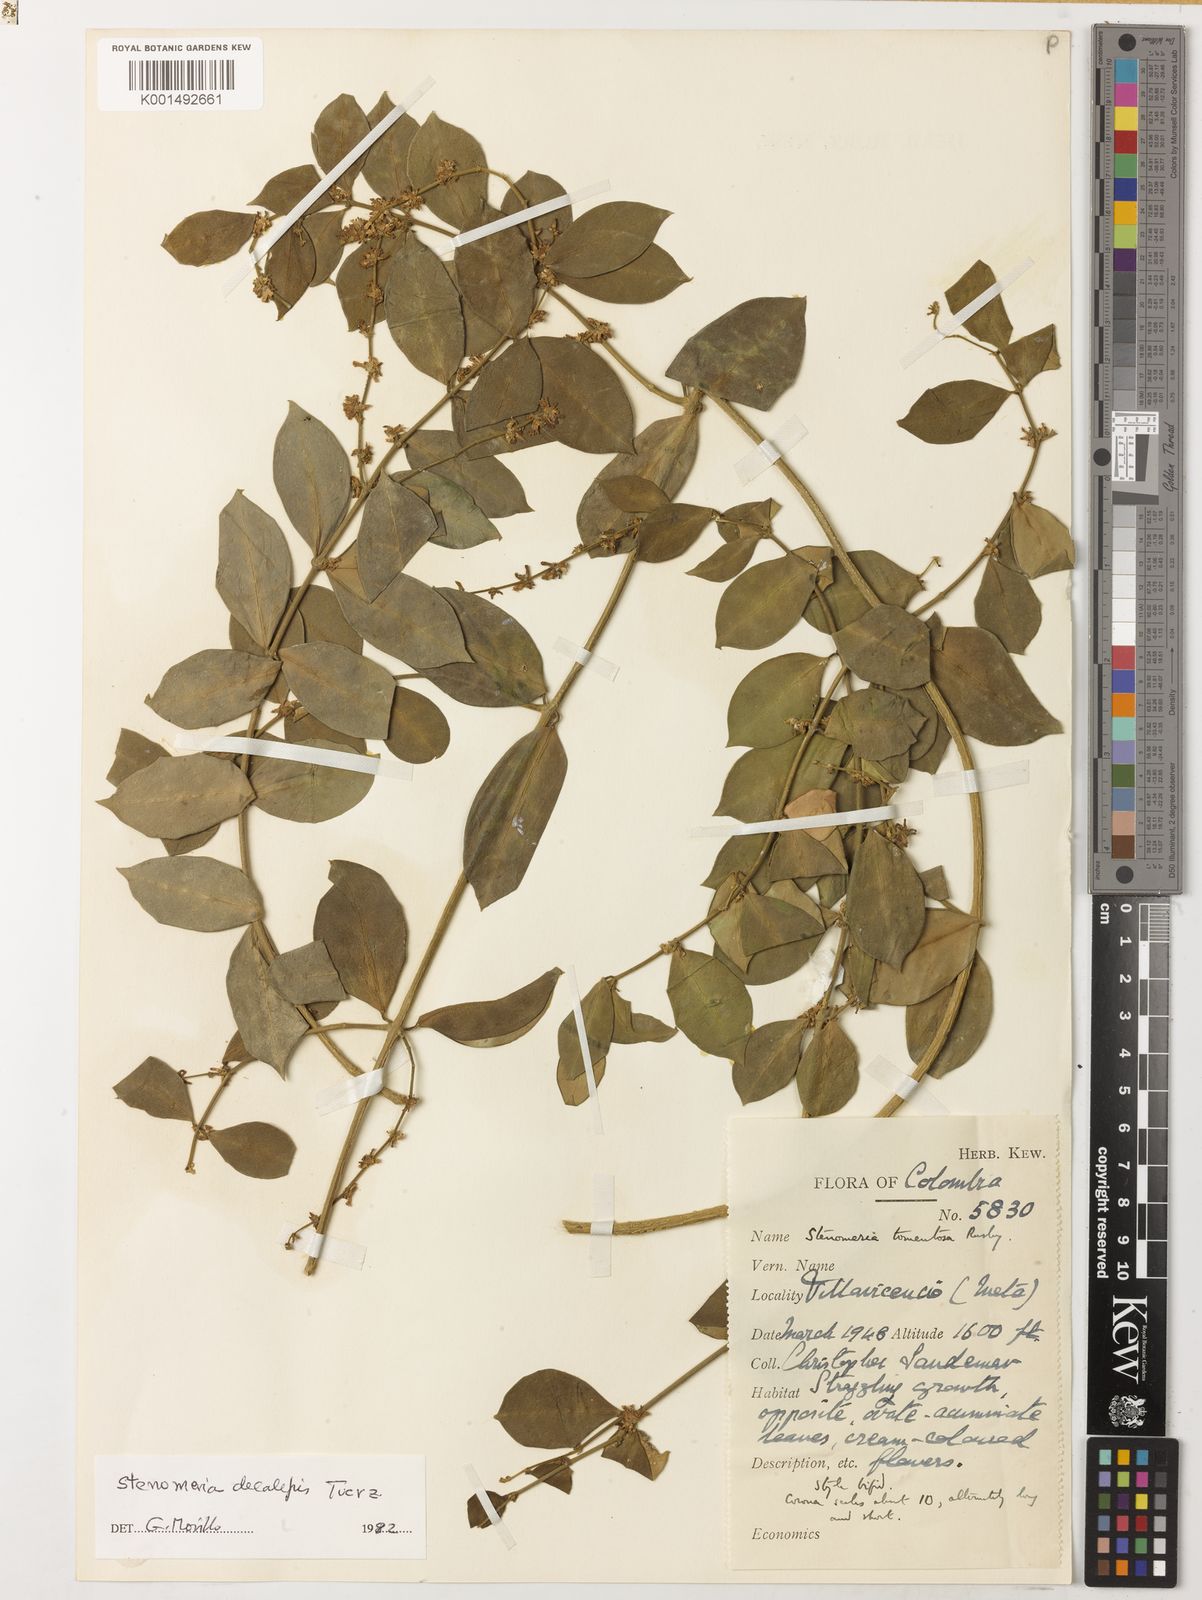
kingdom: Plantae
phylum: Tracheophyta
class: Magnoliopsida
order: Gentianales
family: Apocynaceae
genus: Tassadia
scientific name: Tassadia decalepis
